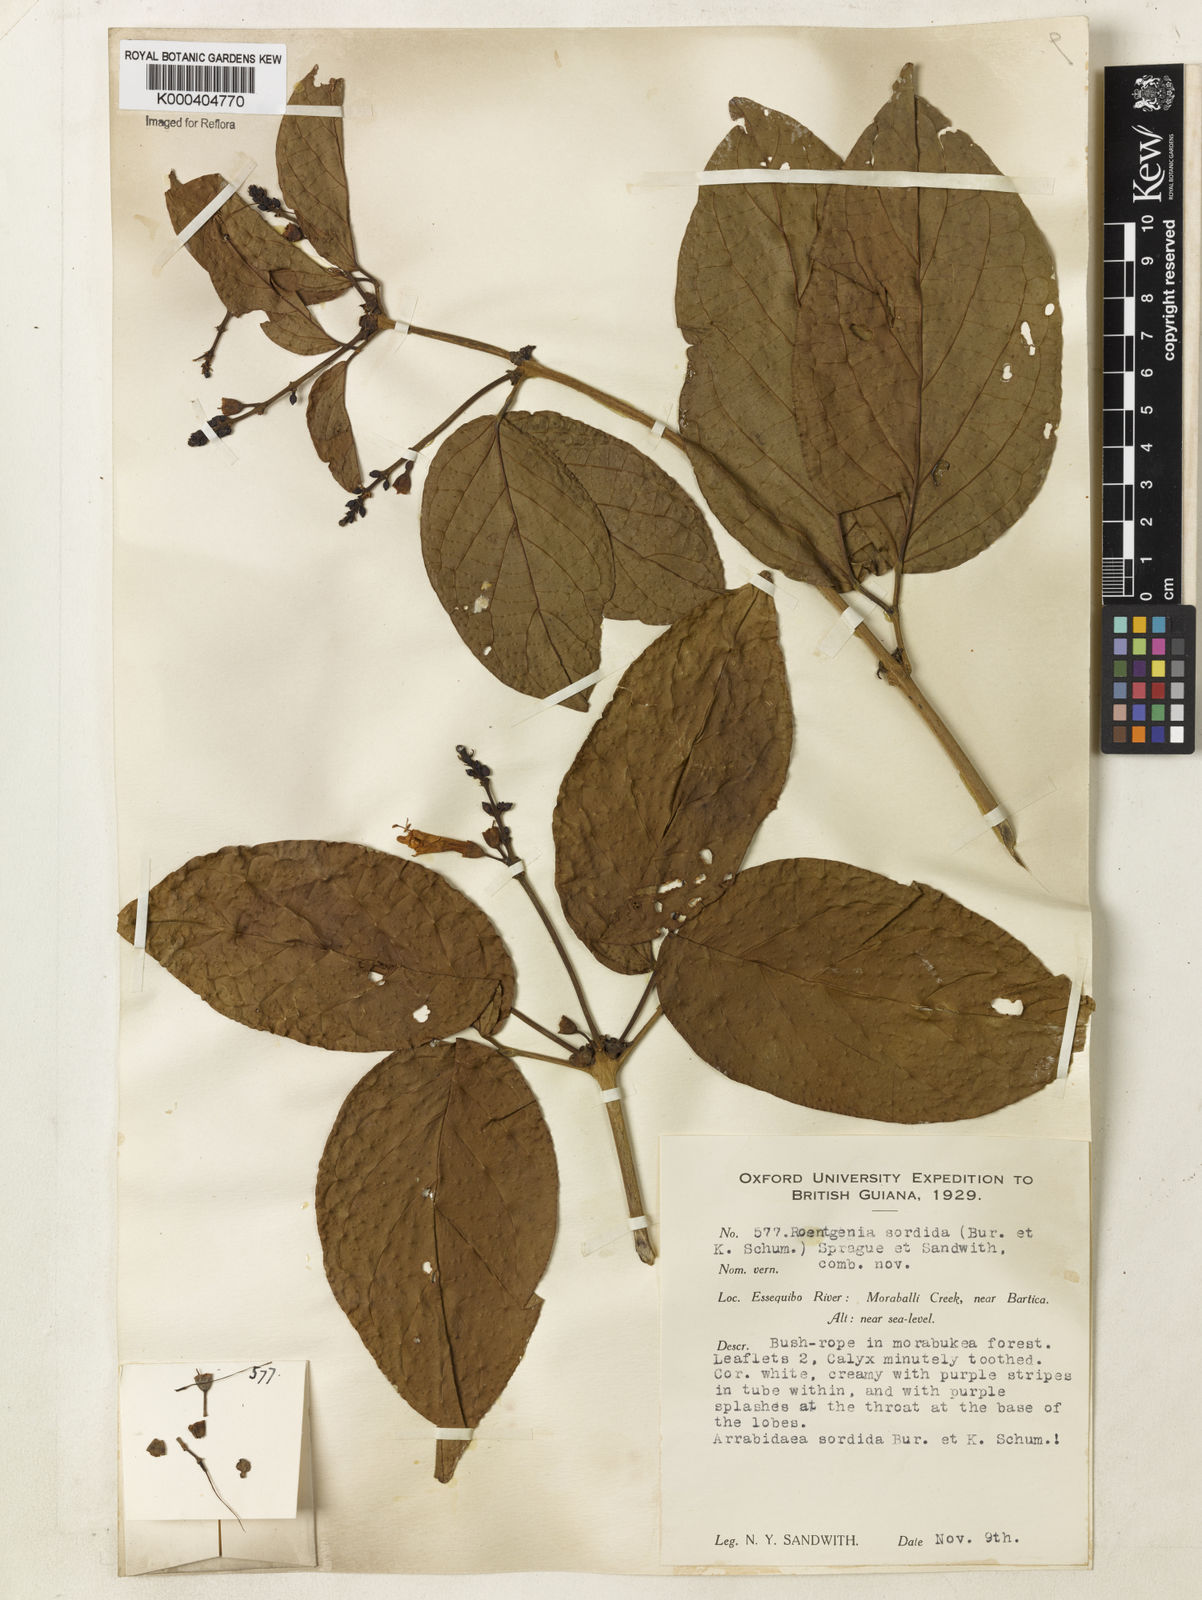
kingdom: Plantae
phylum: Tracheophyta
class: Magnoliopsida
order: Lamiales
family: Bignoniaceae
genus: Bignonia
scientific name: Bignonia sordida
